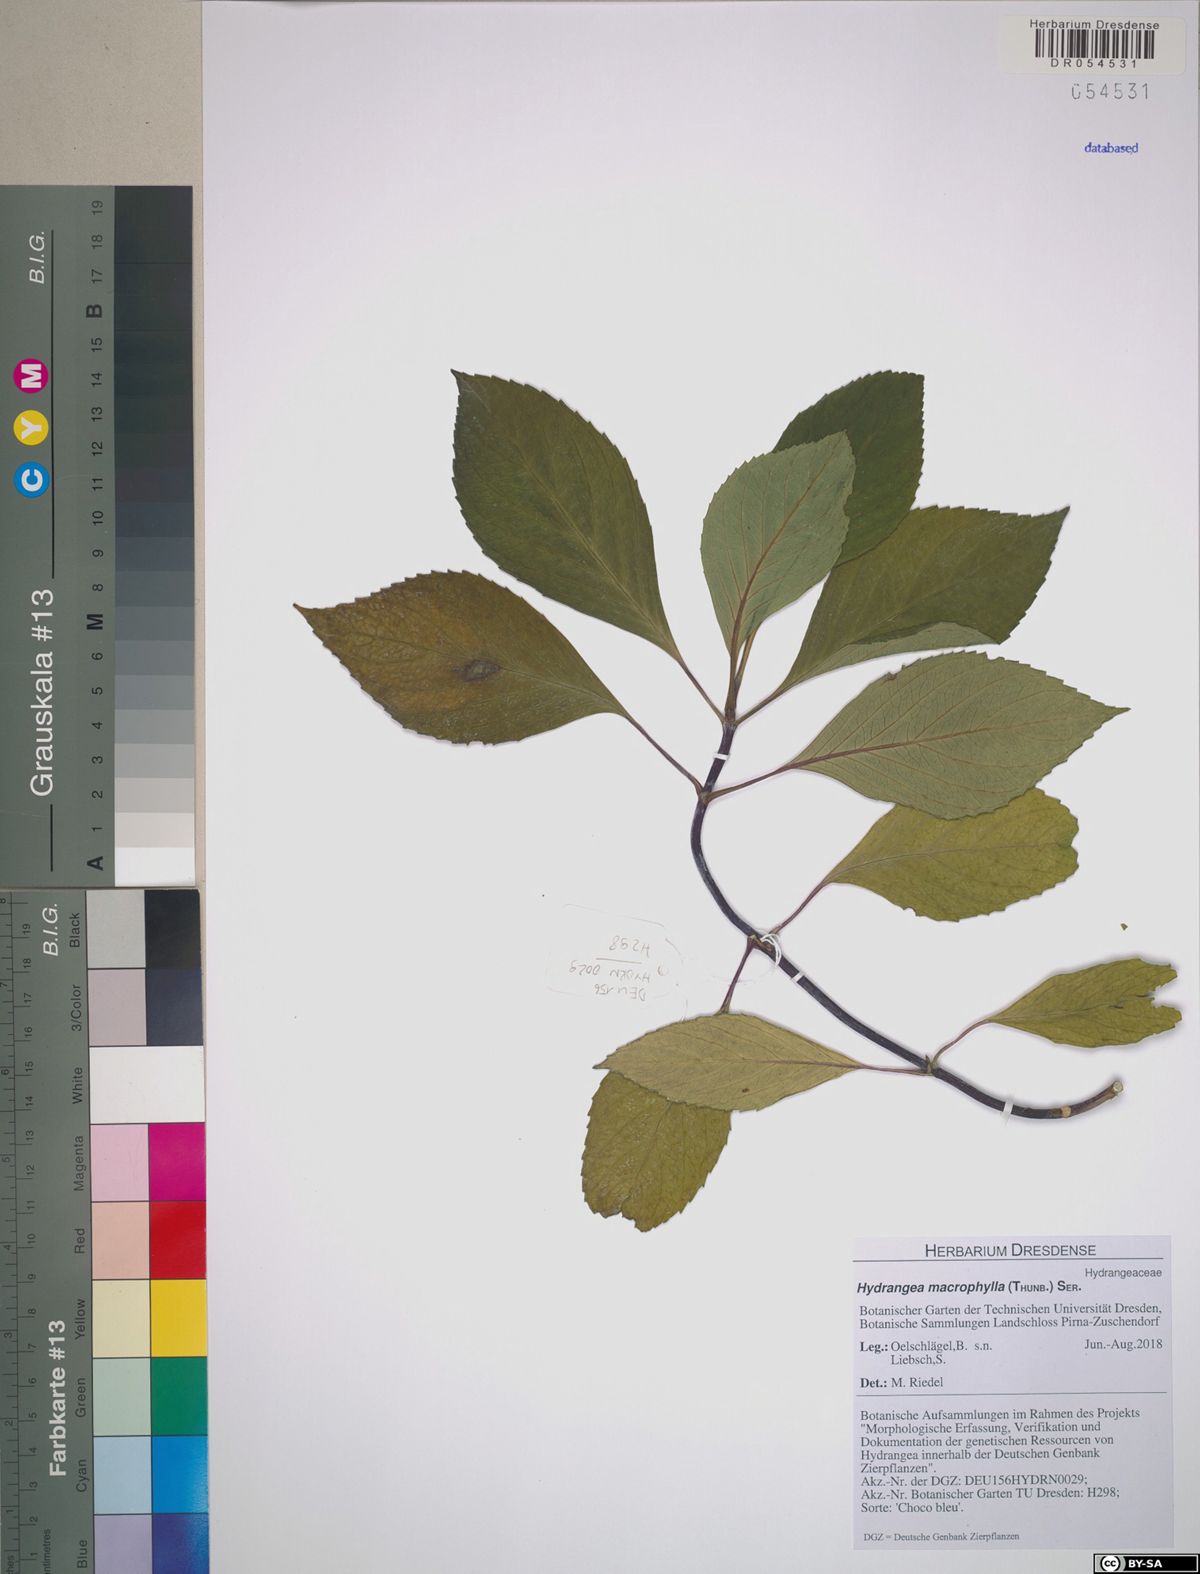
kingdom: Plantae
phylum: Tracheophyta
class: Magnoliopsida
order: Cornales
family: Hydrangeaceae
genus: Hydrangea
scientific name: Hydrangea macrophylla
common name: Hydrangea
